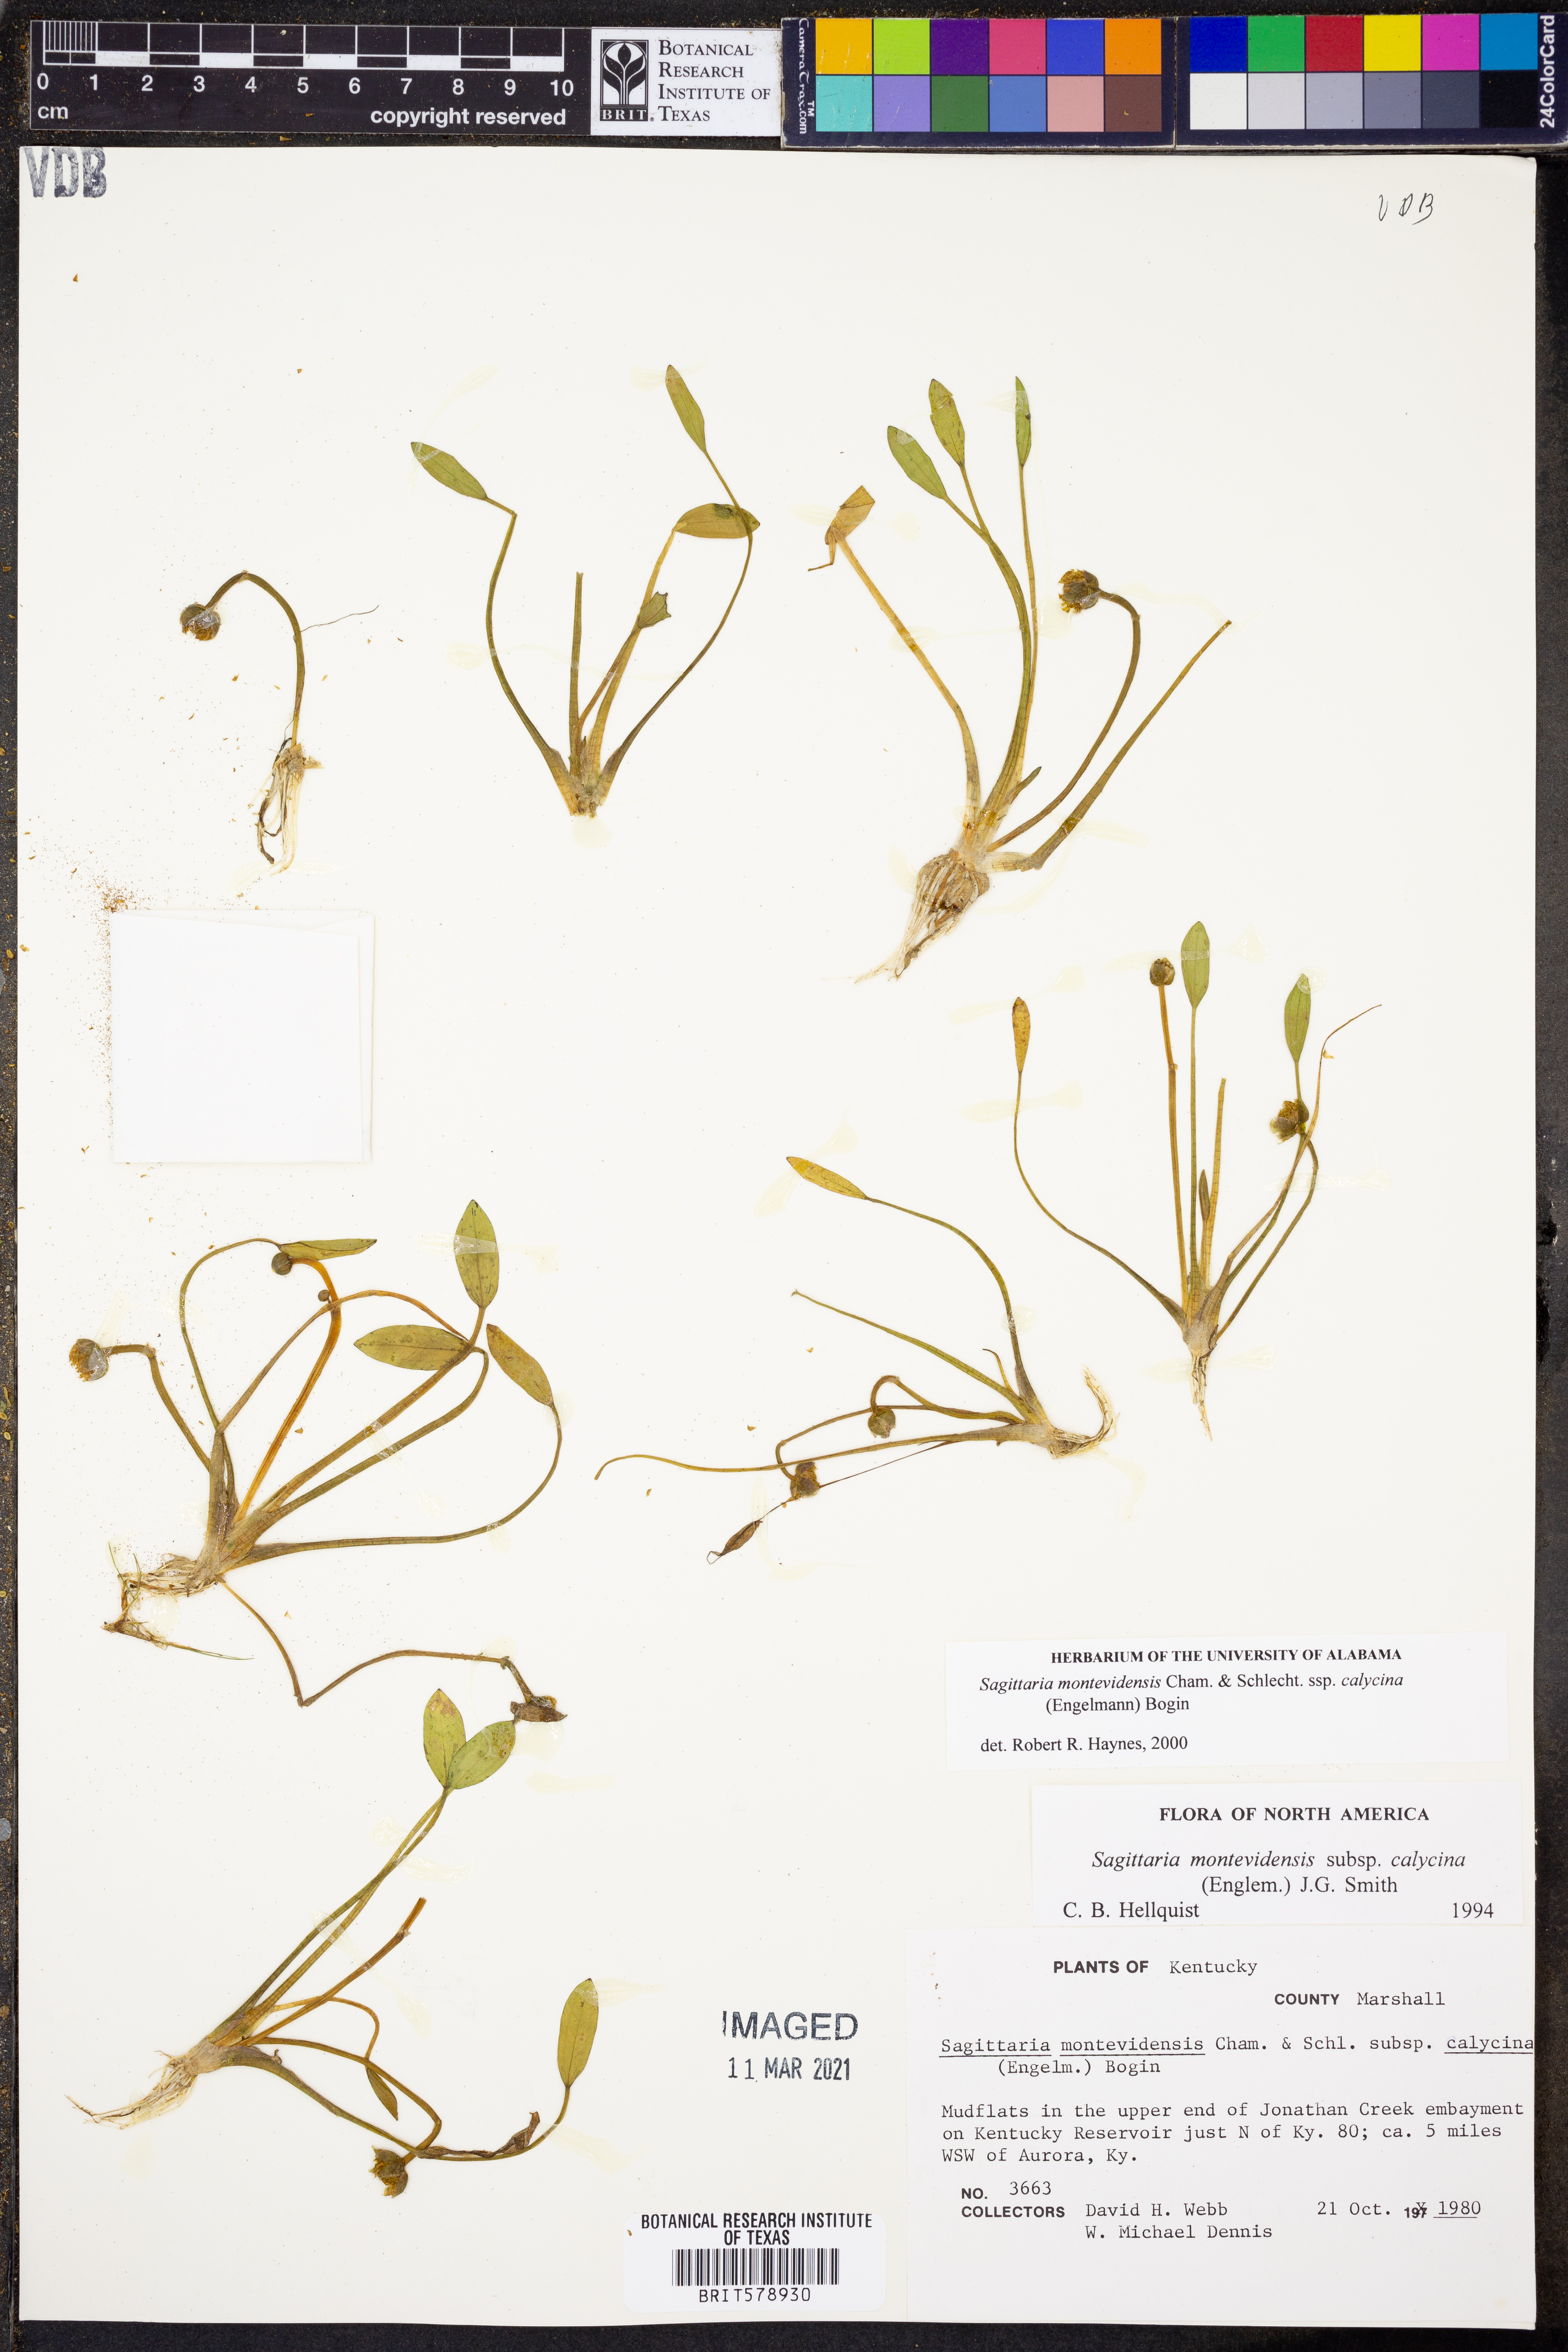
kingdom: Plantae
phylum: Tracheophyta
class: Liliopsida
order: Alismatales
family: Alismataceae
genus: Sagittaria
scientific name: Sagittaria montevidensis
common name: Giant arrowhead
